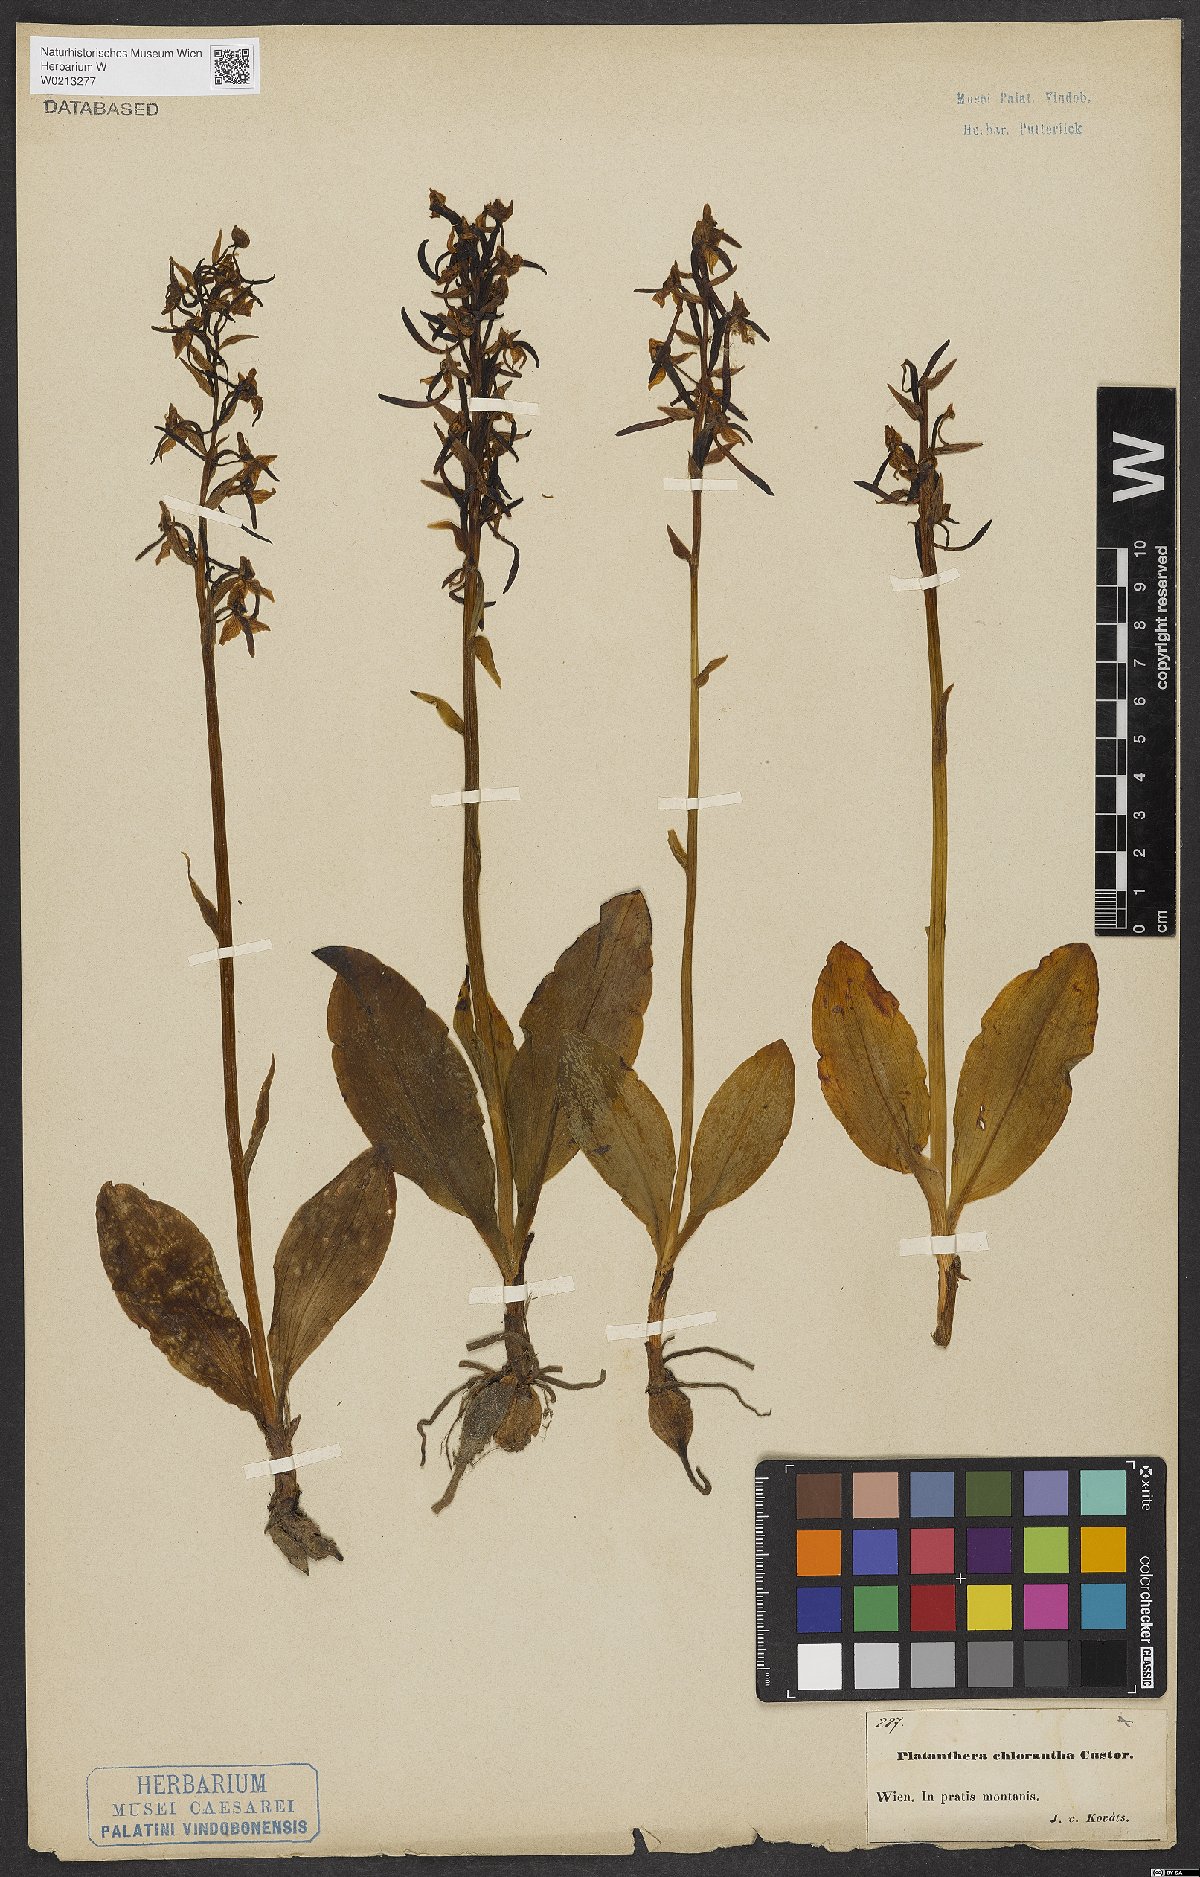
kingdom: Plantae
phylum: Tracheophyta
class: Liliopsida
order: Asparagales
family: Orchidaceae
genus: Platanthera
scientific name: Platanthera chlorantha
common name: Greater butterfly-orchid
